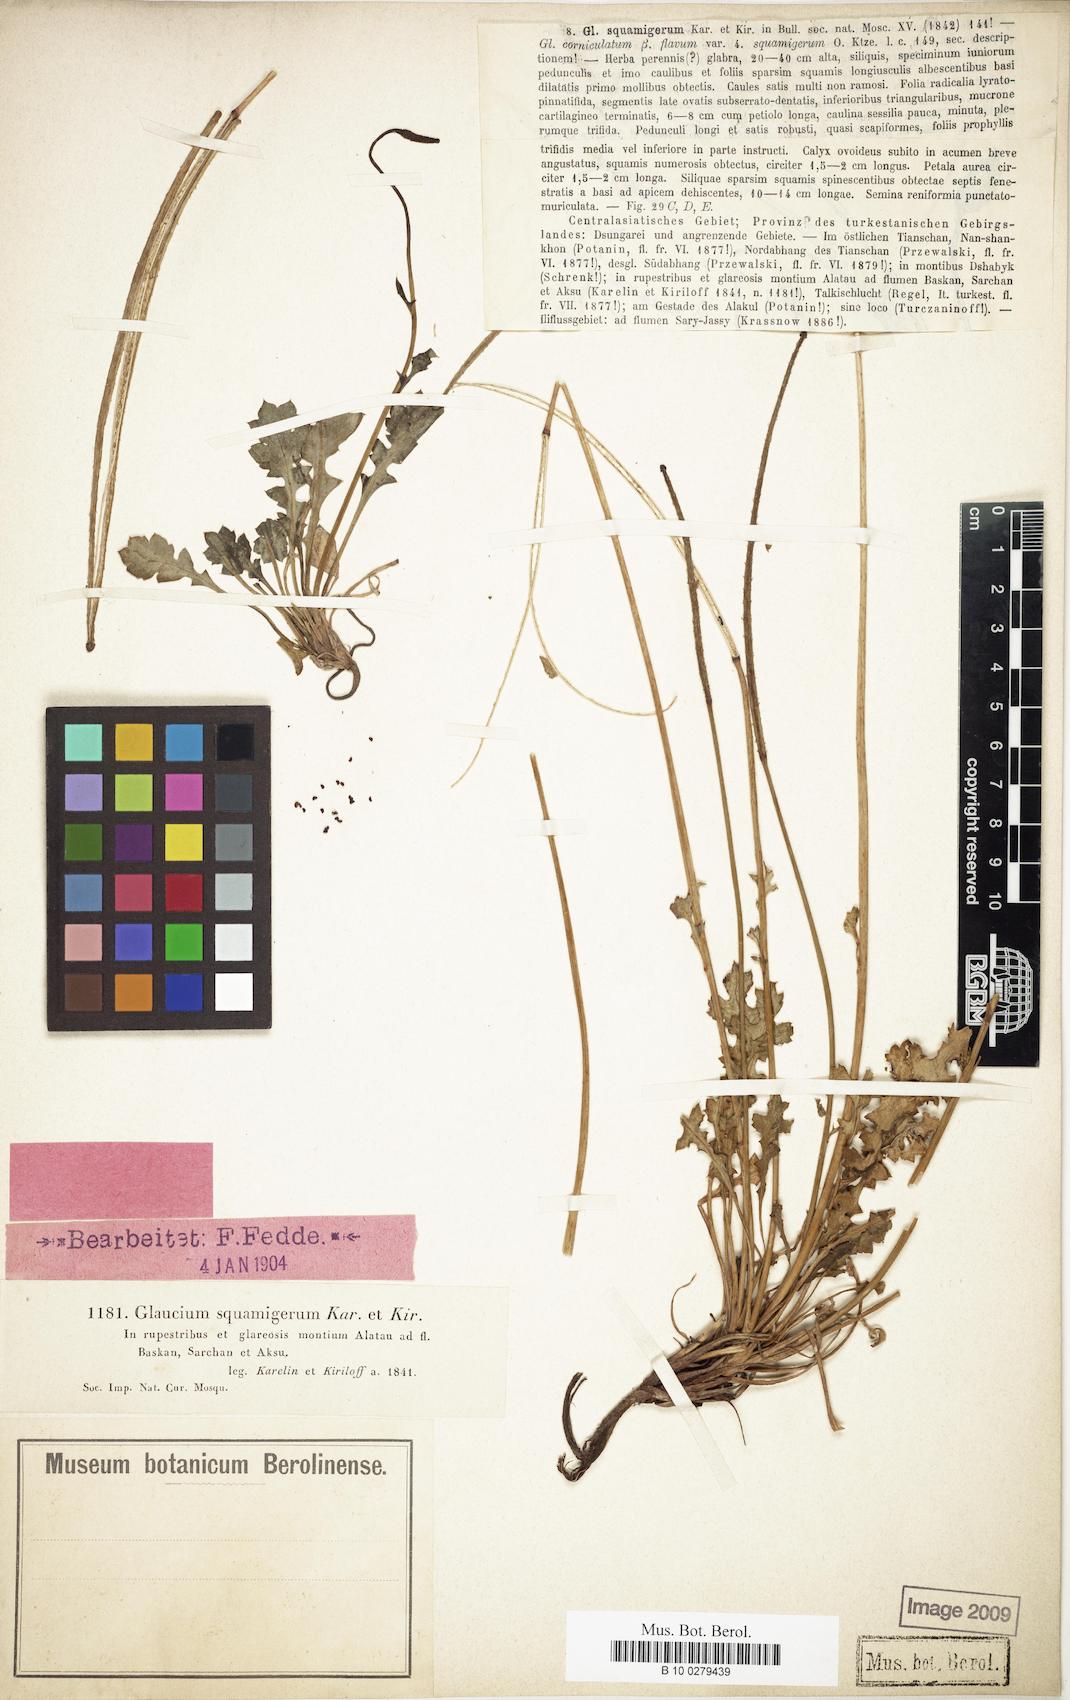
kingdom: Plantae
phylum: Tracheophyta
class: Magnoliopsida
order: Ranunculales
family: Papaveraceae
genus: Glaucium
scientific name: Glaucium squamigerum
